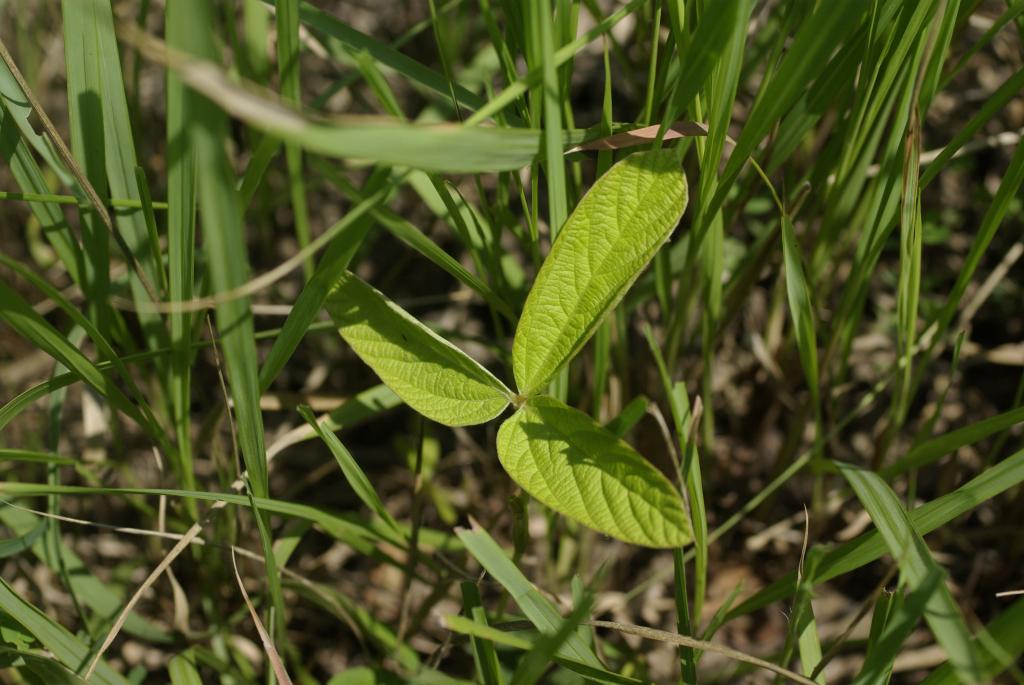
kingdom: Plantae
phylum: Tracheophyta
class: Magnoliopsida
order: Fabales
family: Fabaceae
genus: Flemingia
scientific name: Flemingia macrophylla
